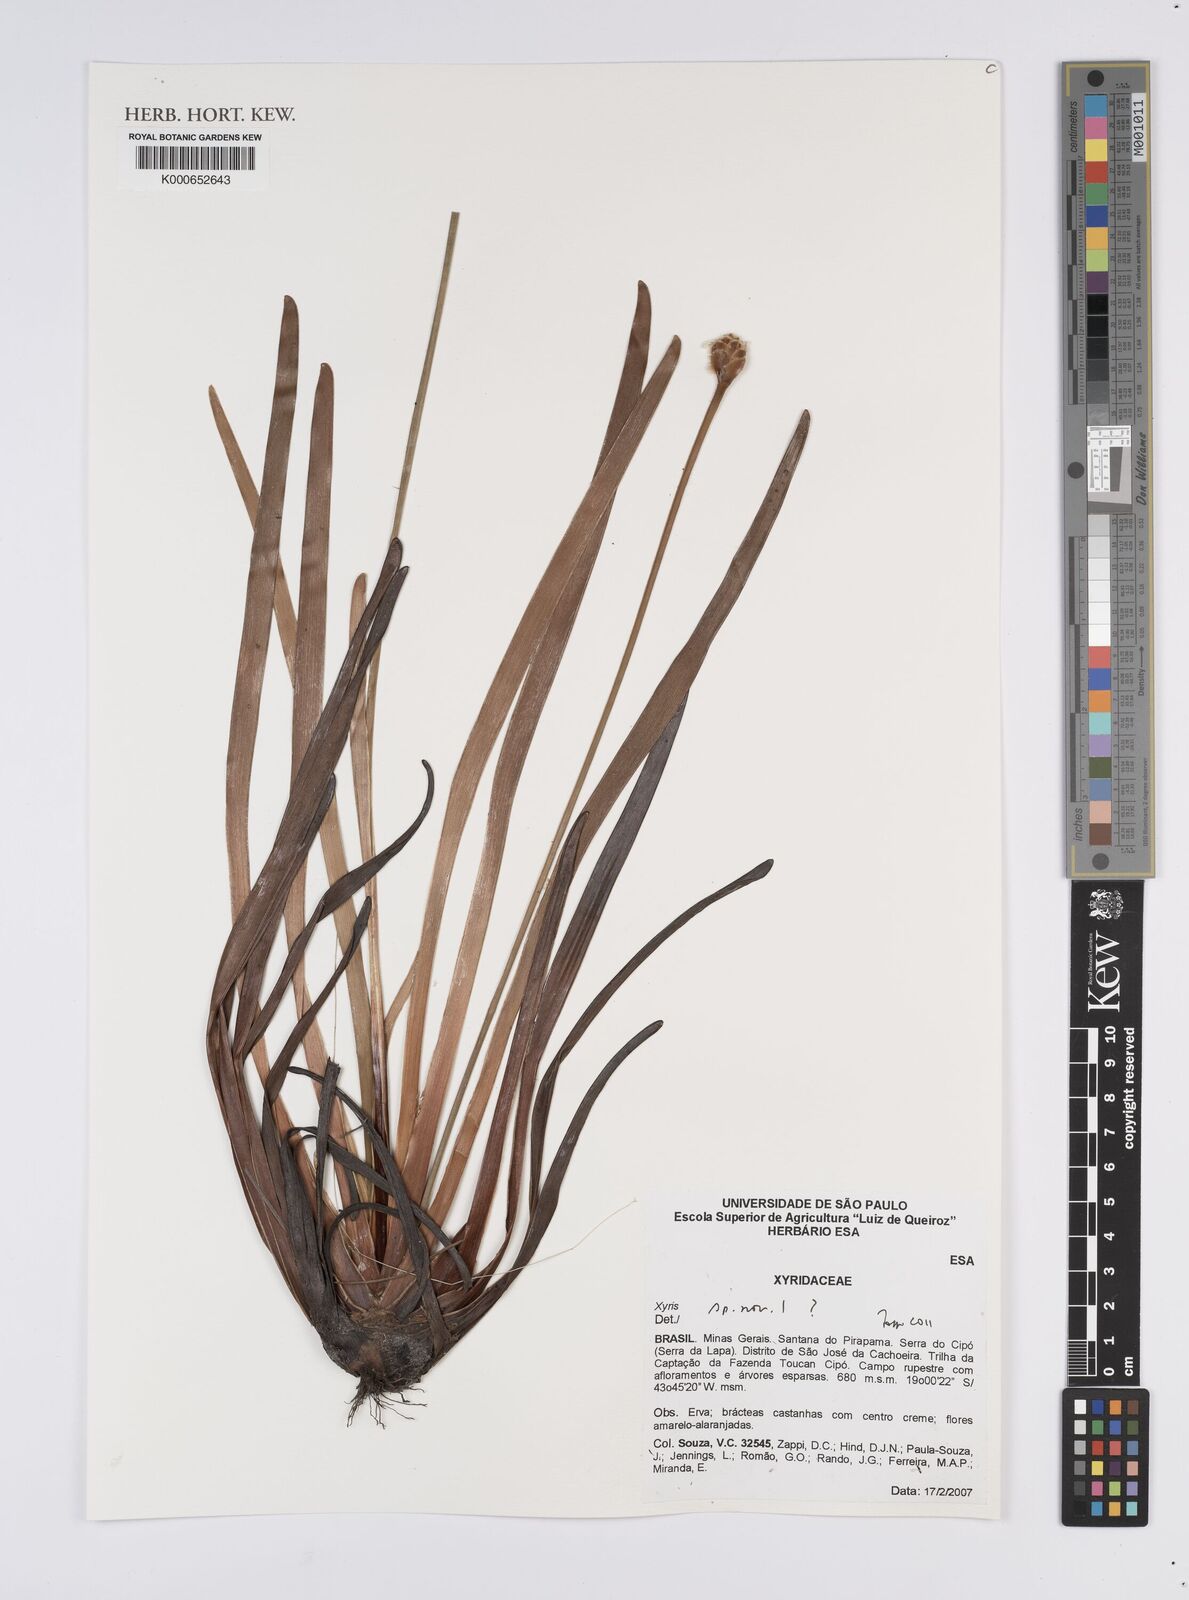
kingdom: Plantae
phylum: Tracheophyta
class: Liliopsida
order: Poales
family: Xyridaceae
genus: Xyris
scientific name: Xyris
